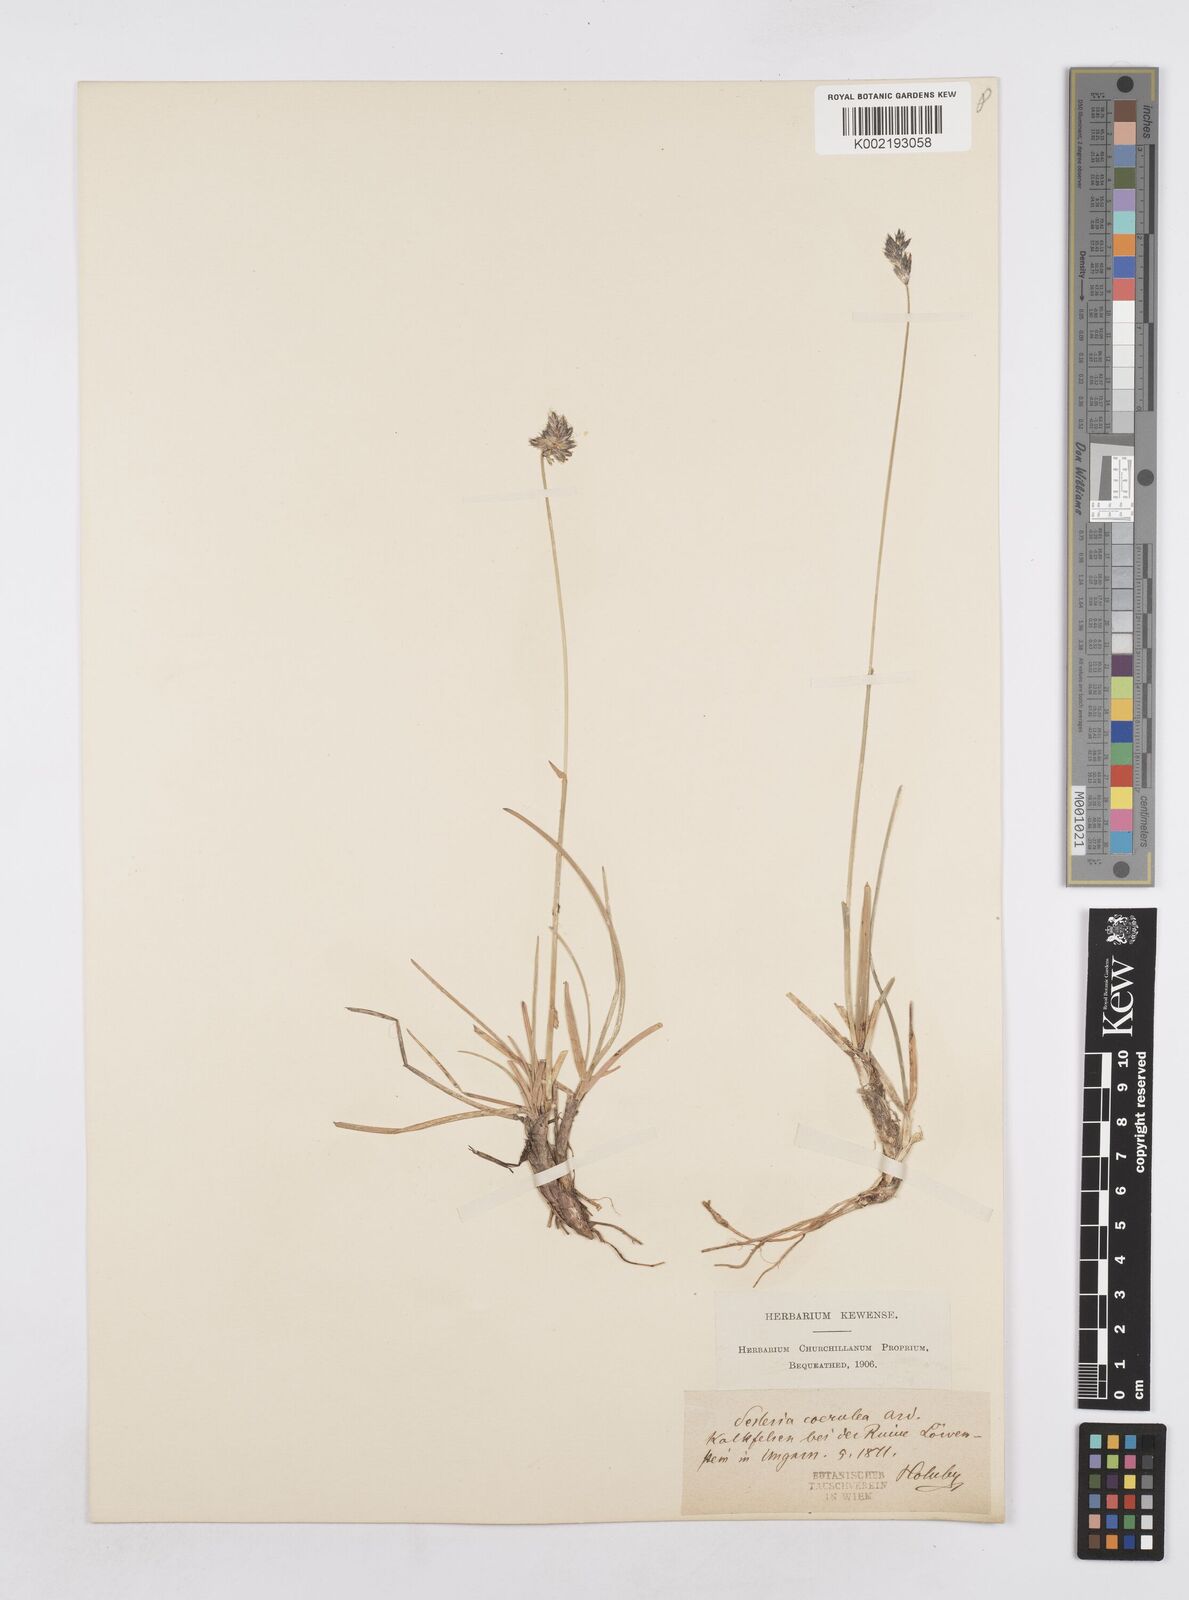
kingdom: Plantae
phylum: Tracheophyta
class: Liliopsida
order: Poales
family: Poaceae
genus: Sesleria
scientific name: Sesleria caerulea
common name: Blue moor-grass
